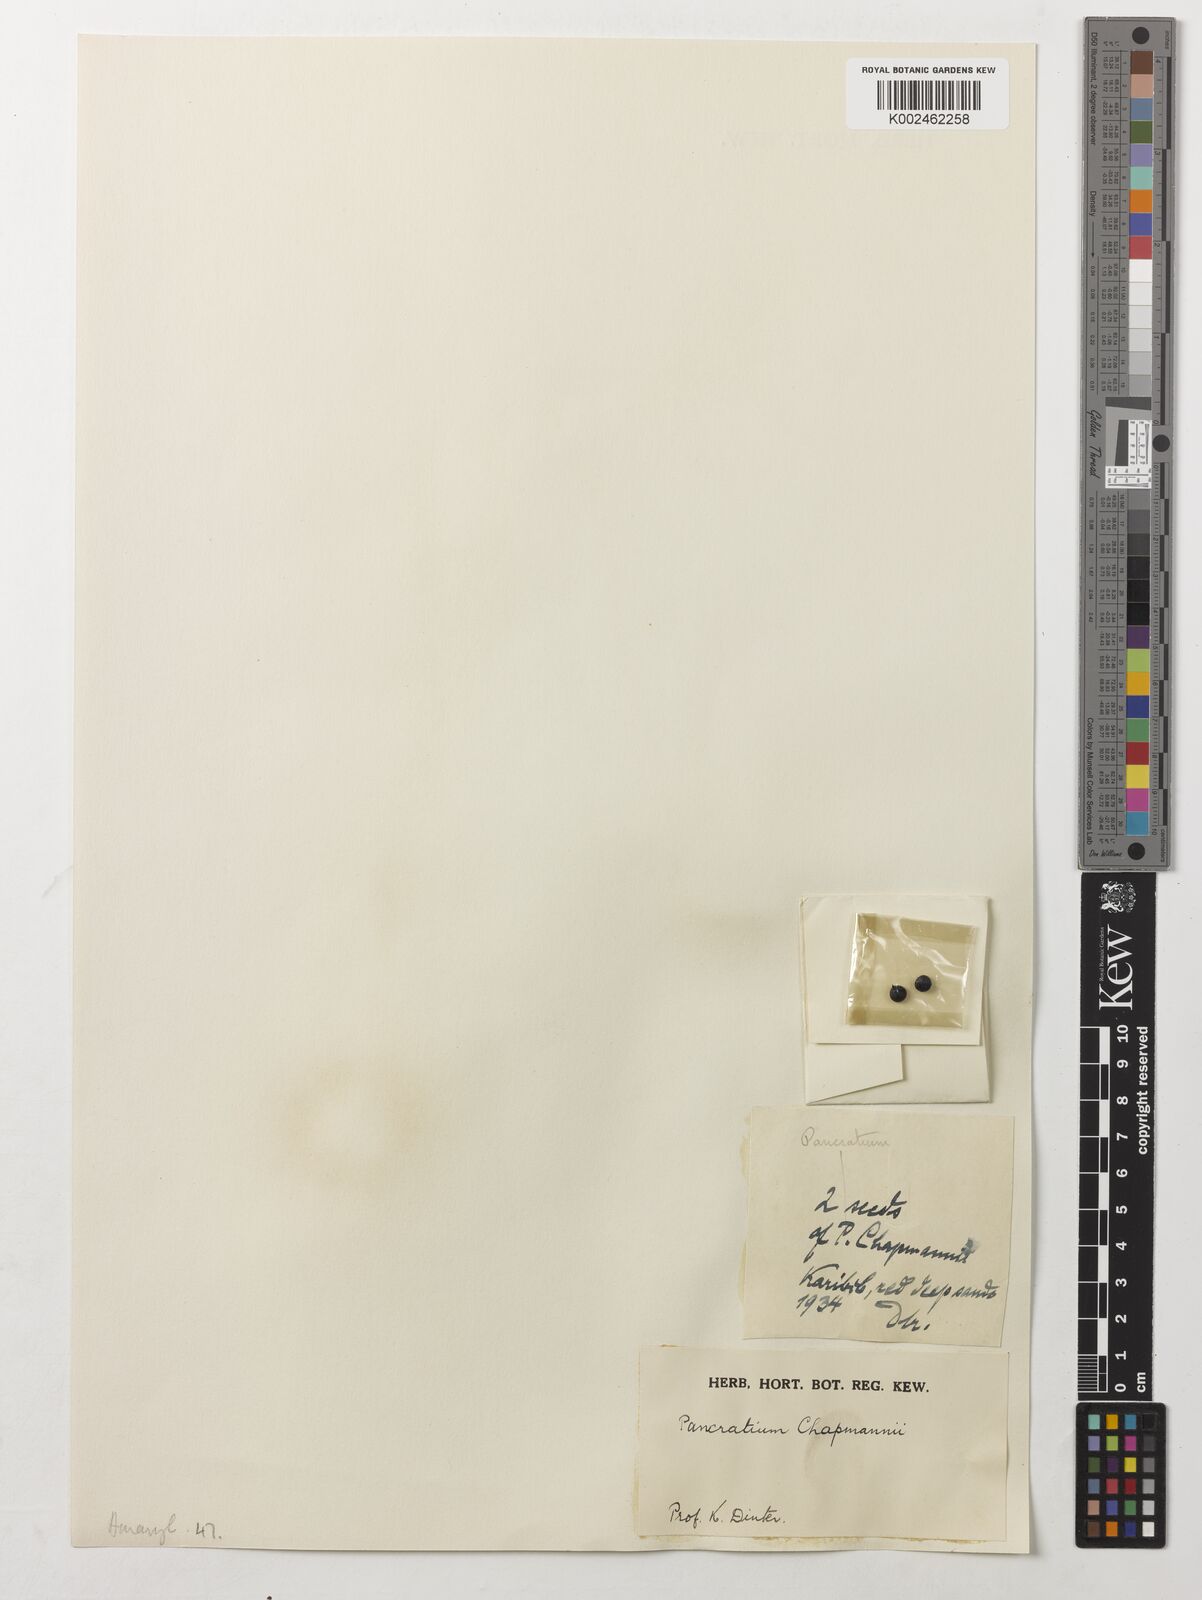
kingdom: Plantae
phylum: Tracheophyta
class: Liliopsida
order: Asparagales
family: Amaryllidaceae
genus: Pancratium
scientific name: Pancratium tenuifolium
